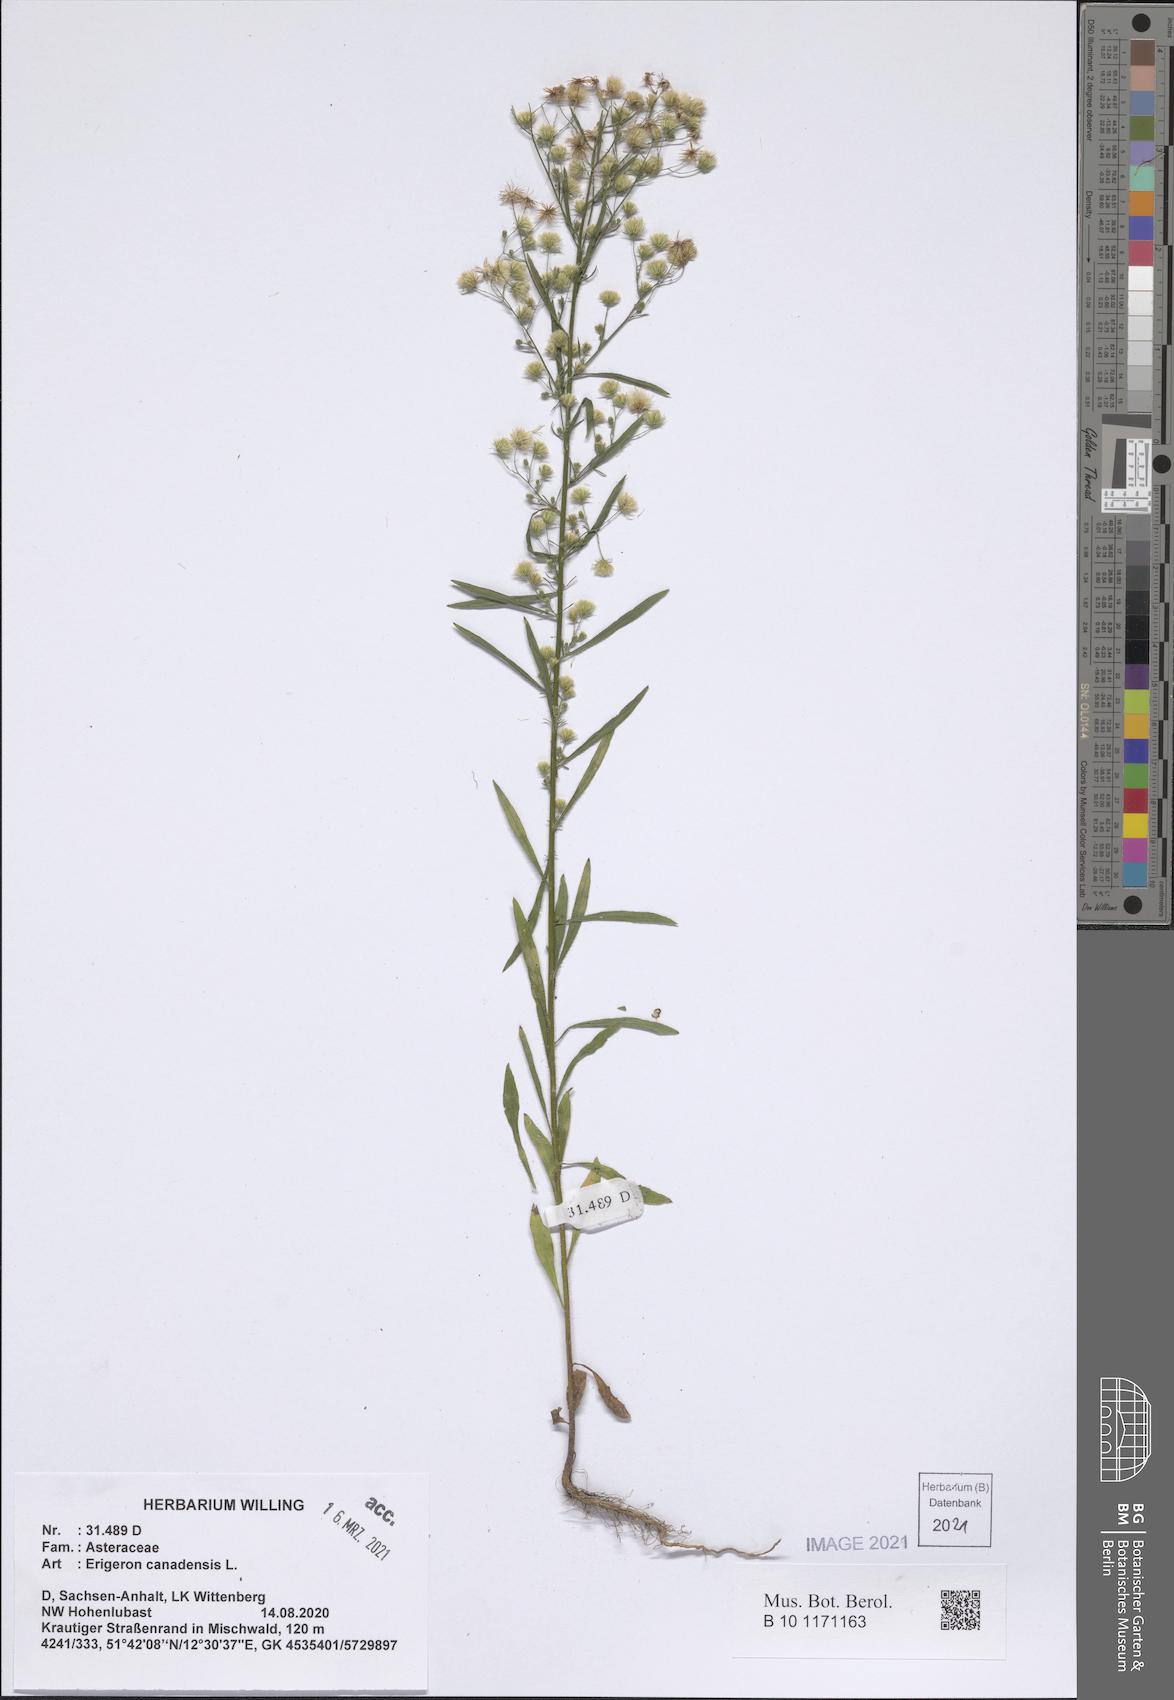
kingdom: Plantae
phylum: Tracheophyta
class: Magnoliopsida
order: Asterales
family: Asteraceae
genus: Erigeron
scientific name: Erigeron canadensis
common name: Canadian fleabane
